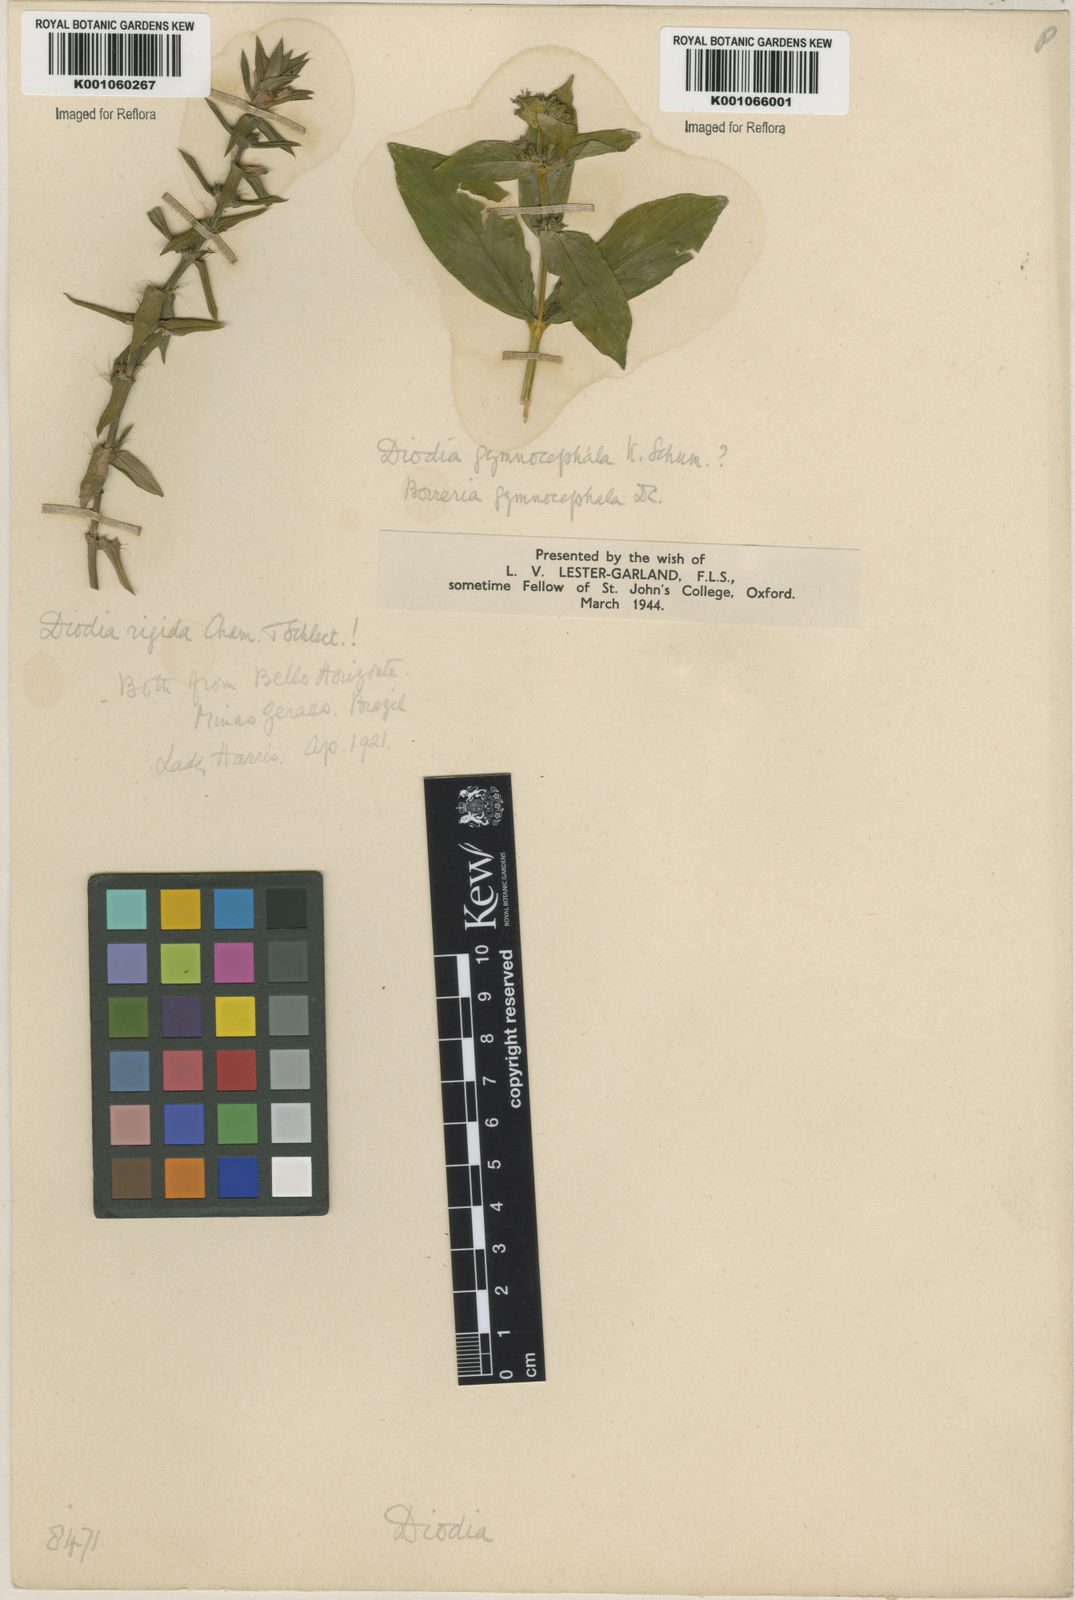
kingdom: Plantae
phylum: Tracheophyta
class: Magnoliopsida
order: Gentianales
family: Rubiaceae
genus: Hexasepalum
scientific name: Hexasepalum apiculatum
